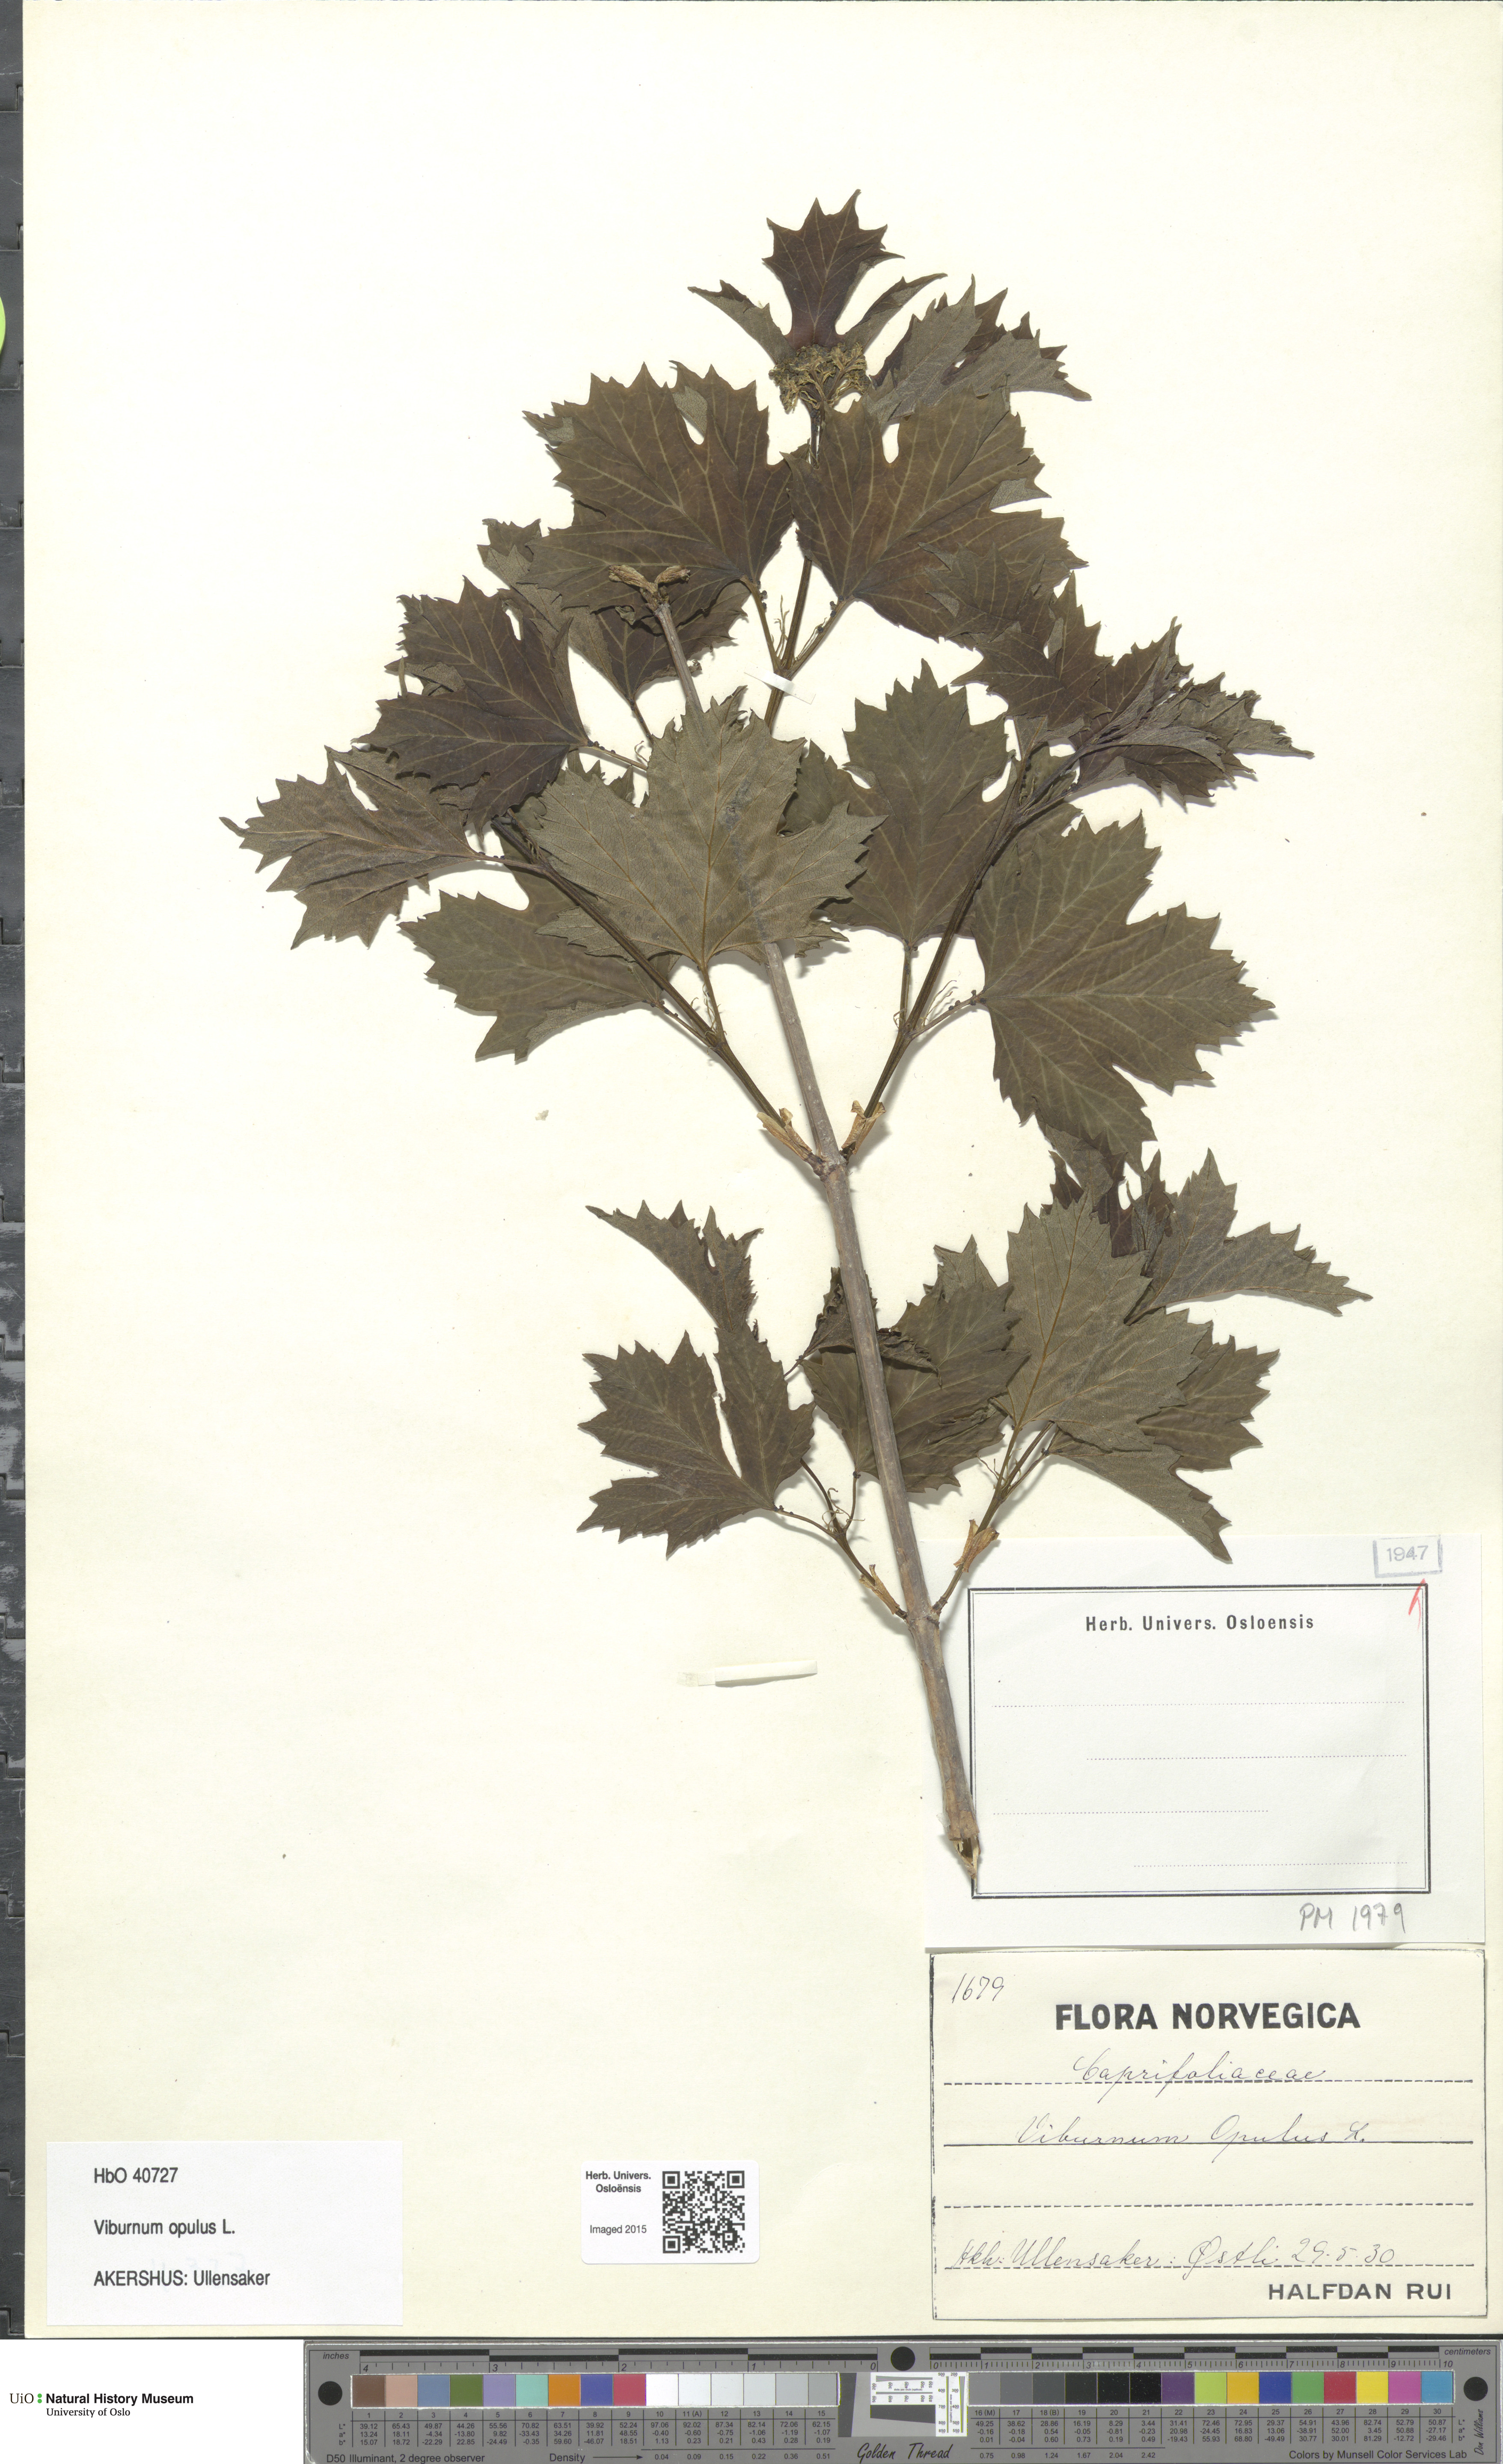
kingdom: Plantae
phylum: Tracheophyta
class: Magnoliopsida
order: Dipsacales
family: Viburnaceae
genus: Viburnum
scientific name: Viburnum opulus
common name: Guelder-rose
